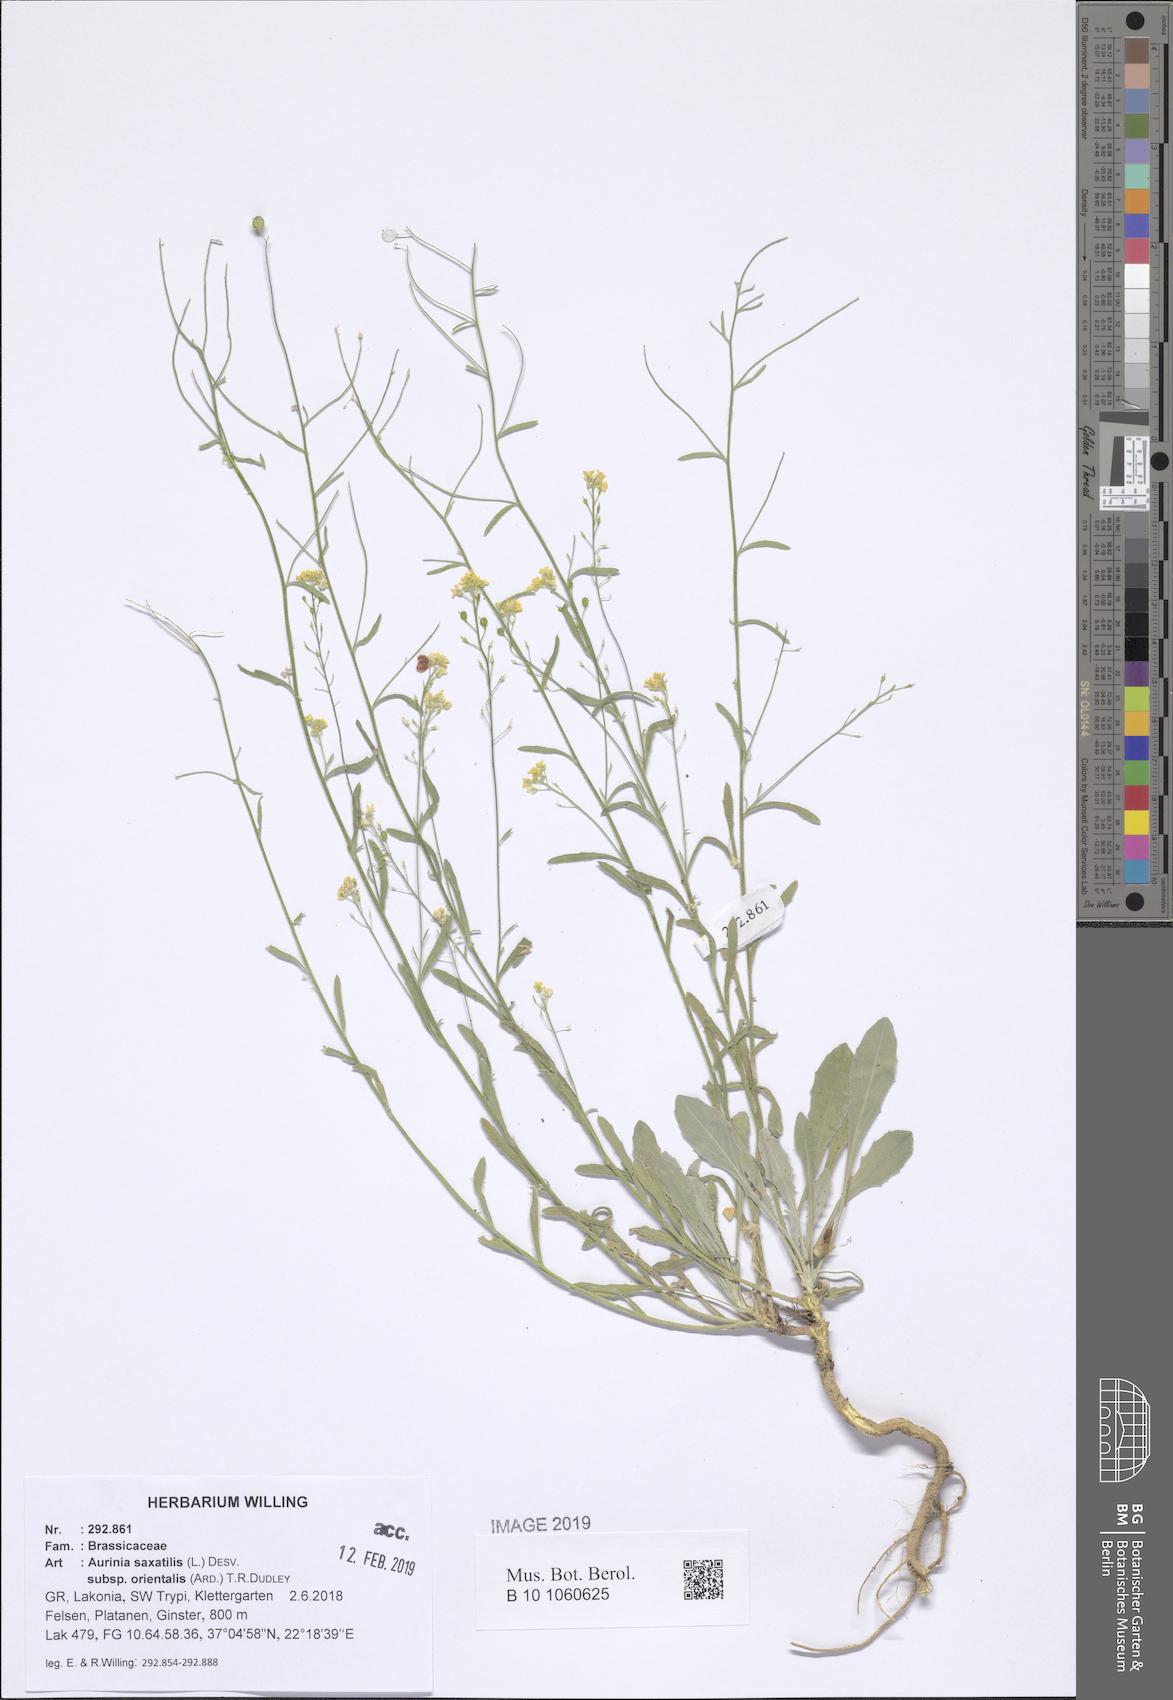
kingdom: Plantae
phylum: Tracheophyta
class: Magnoliopsida
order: Brassicales
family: Brassicaceae
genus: Aurinia
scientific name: Aurinia saxatilis
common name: Golden-tuft alyssum
